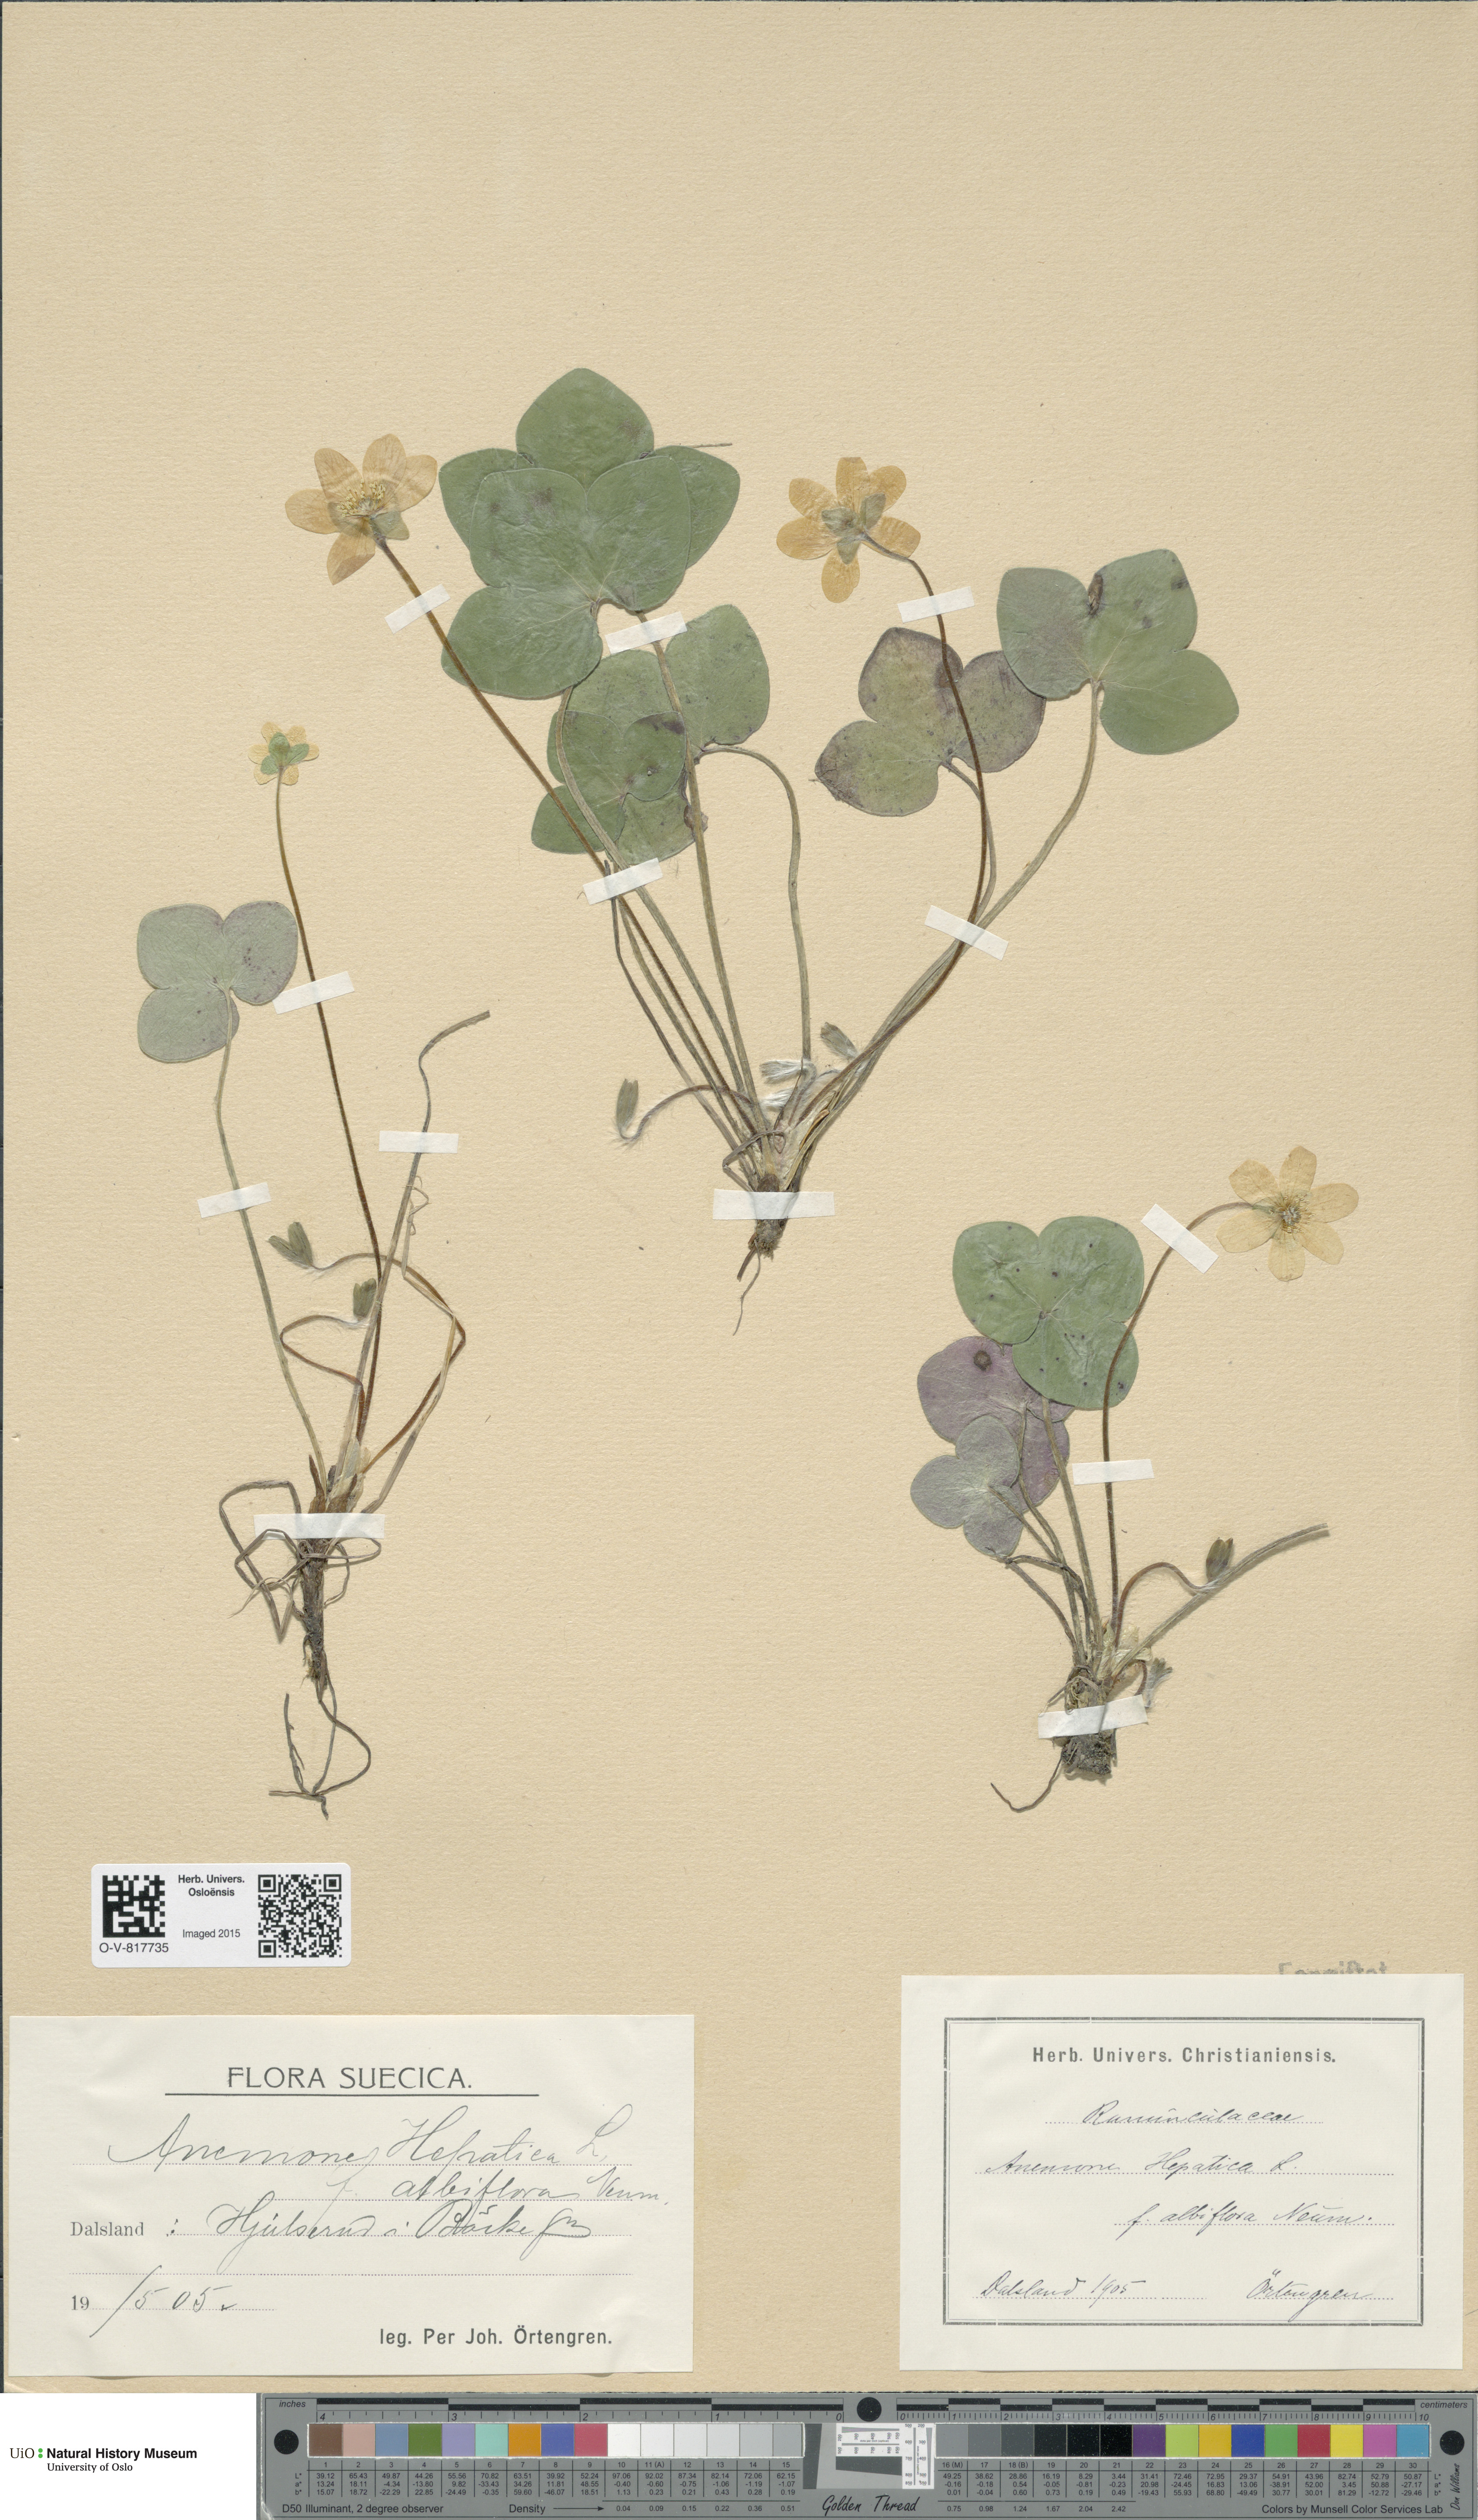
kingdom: Plantae
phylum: Tracheophyta
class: Magnoliopsida
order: Ranunculales
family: Ranunculaceae
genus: Hepatica
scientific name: Hepatica nobilis
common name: Liverleaf
